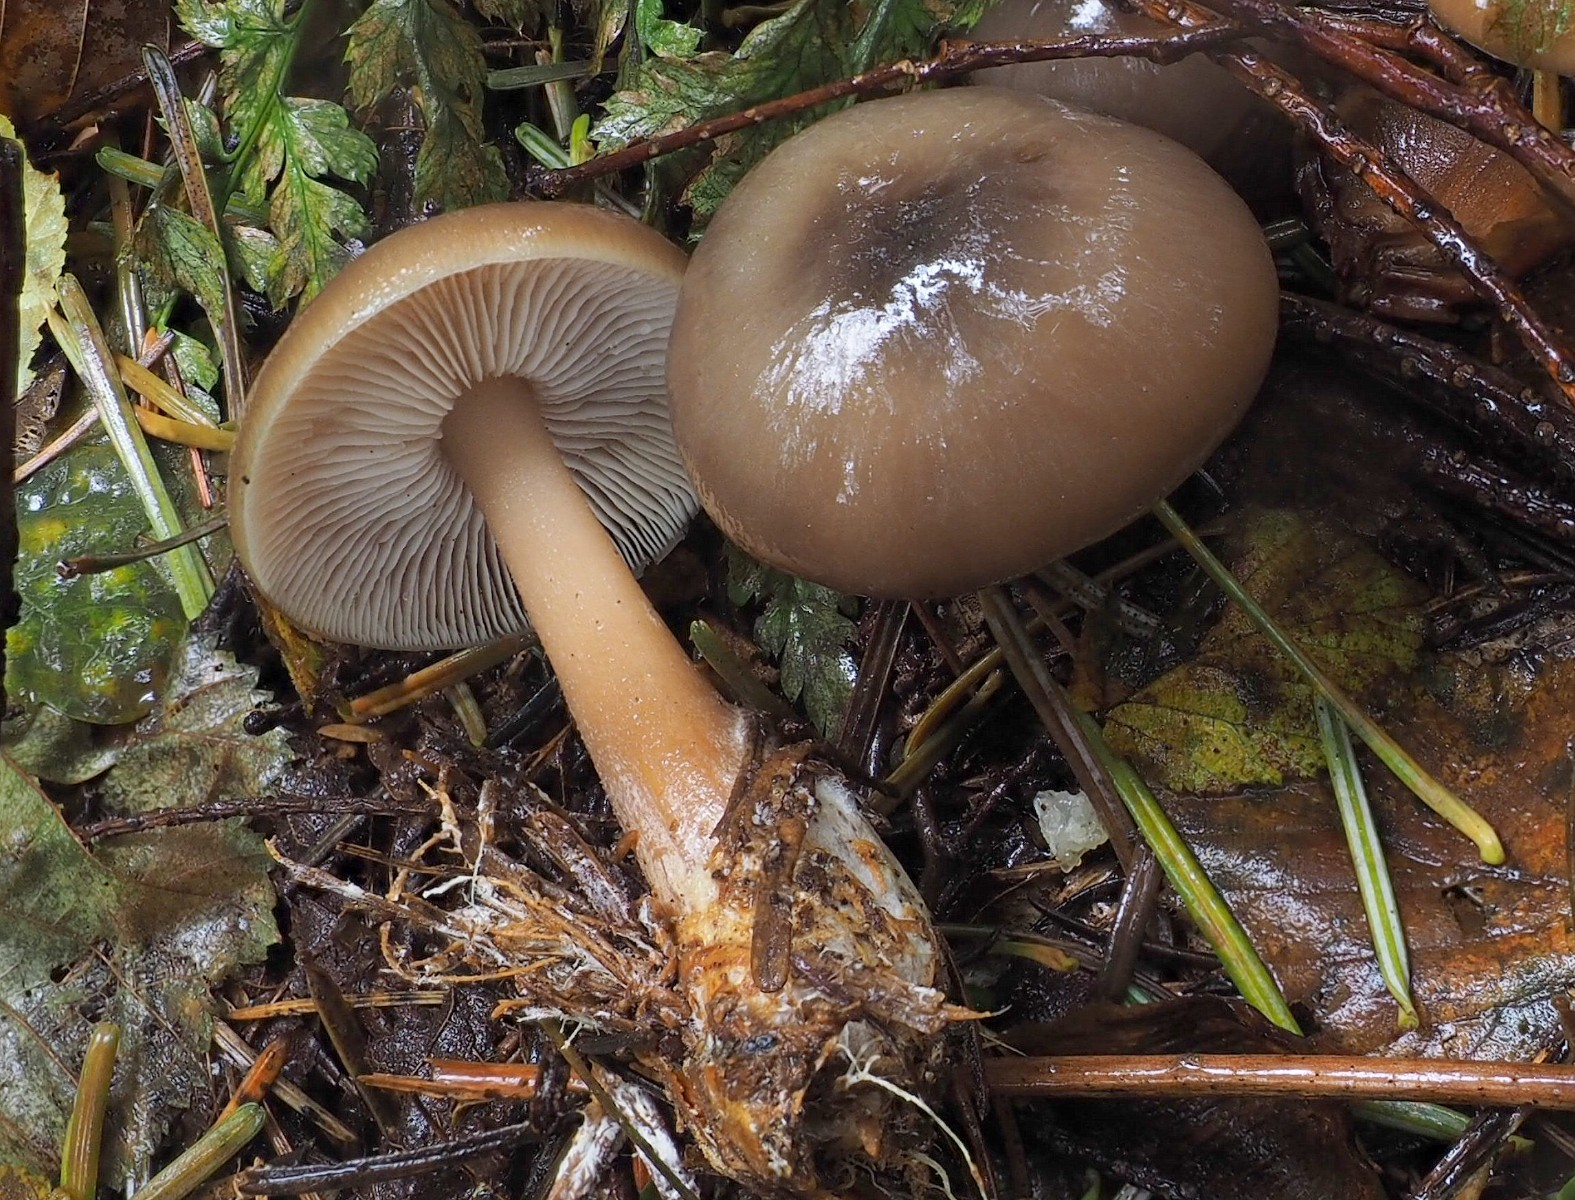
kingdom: Fungi
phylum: Basidiomycota
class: Agaricomycetes
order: Agaricales
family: Omphalotaceae
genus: Rhodocollybia
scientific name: Rhodocollybia asema
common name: horngrå fladhat
